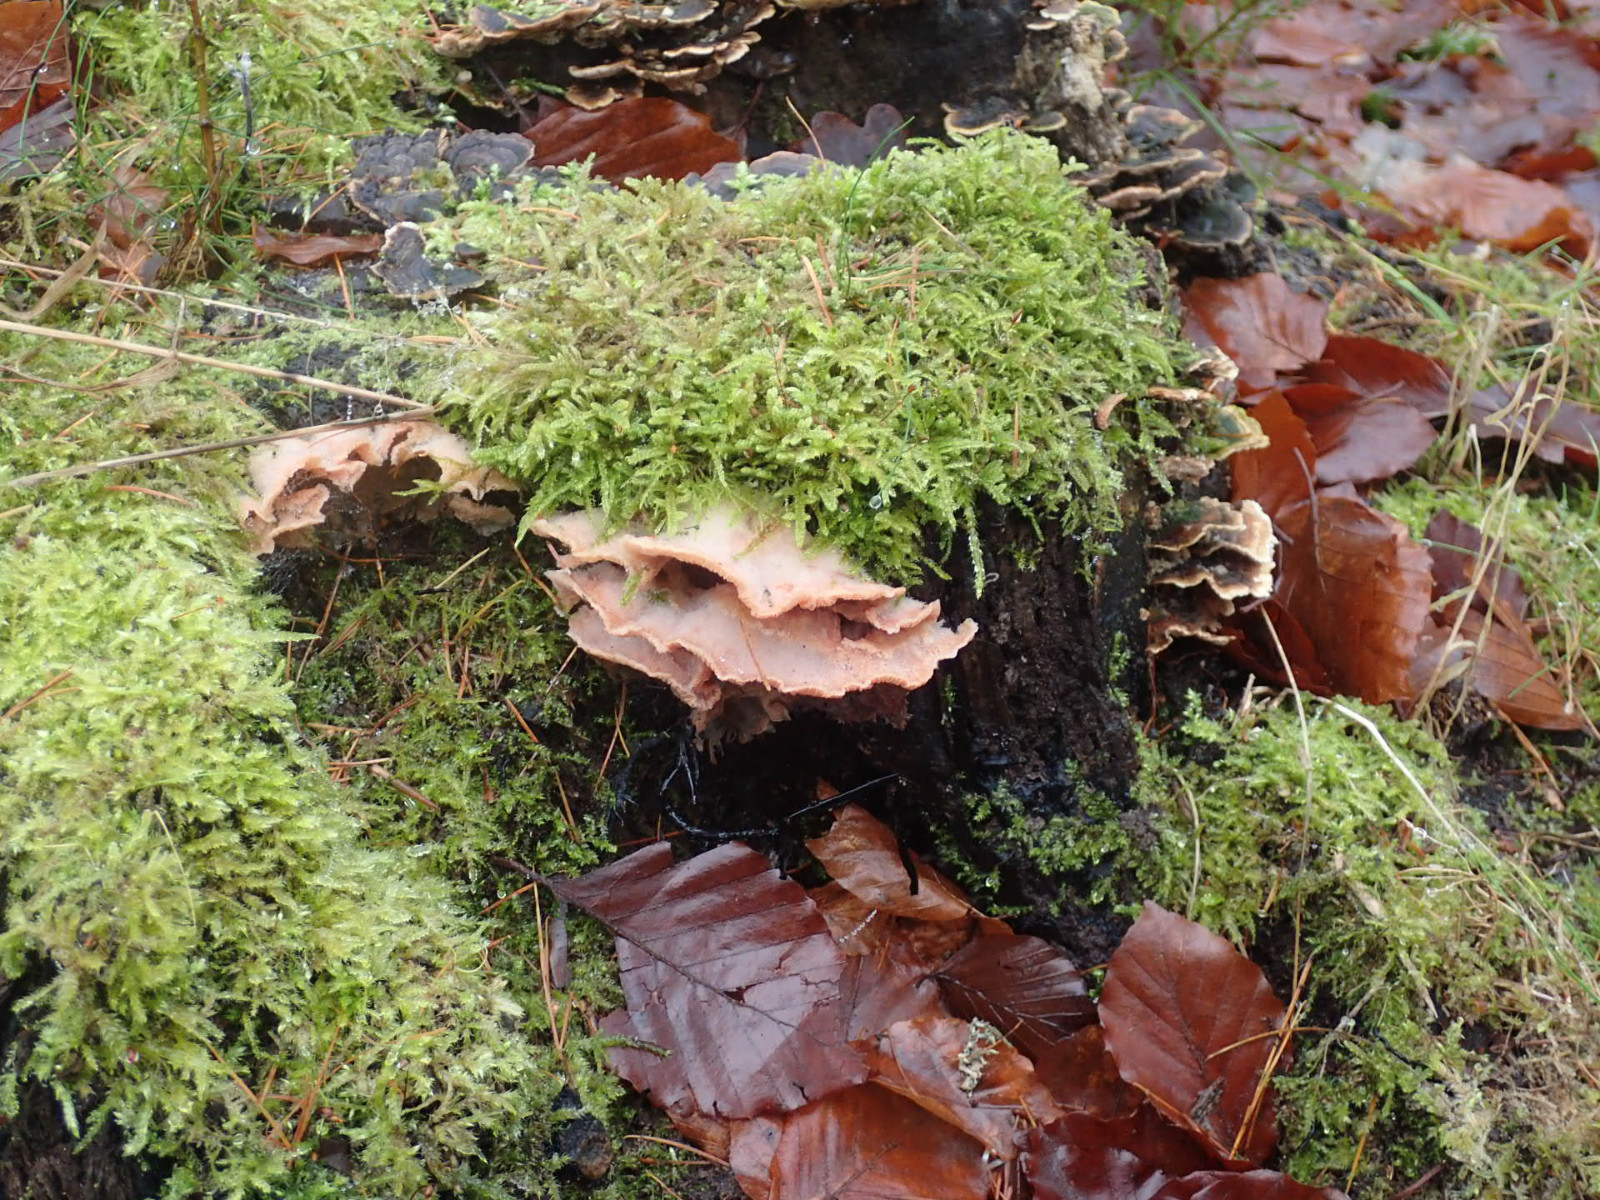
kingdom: Fungi
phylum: Basidiomycota
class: Agaricomycetes
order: Polyporales
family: Meruliaceae
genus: Phlebia
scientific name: Phlebia tremellosa
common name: bævrende åresvamp
